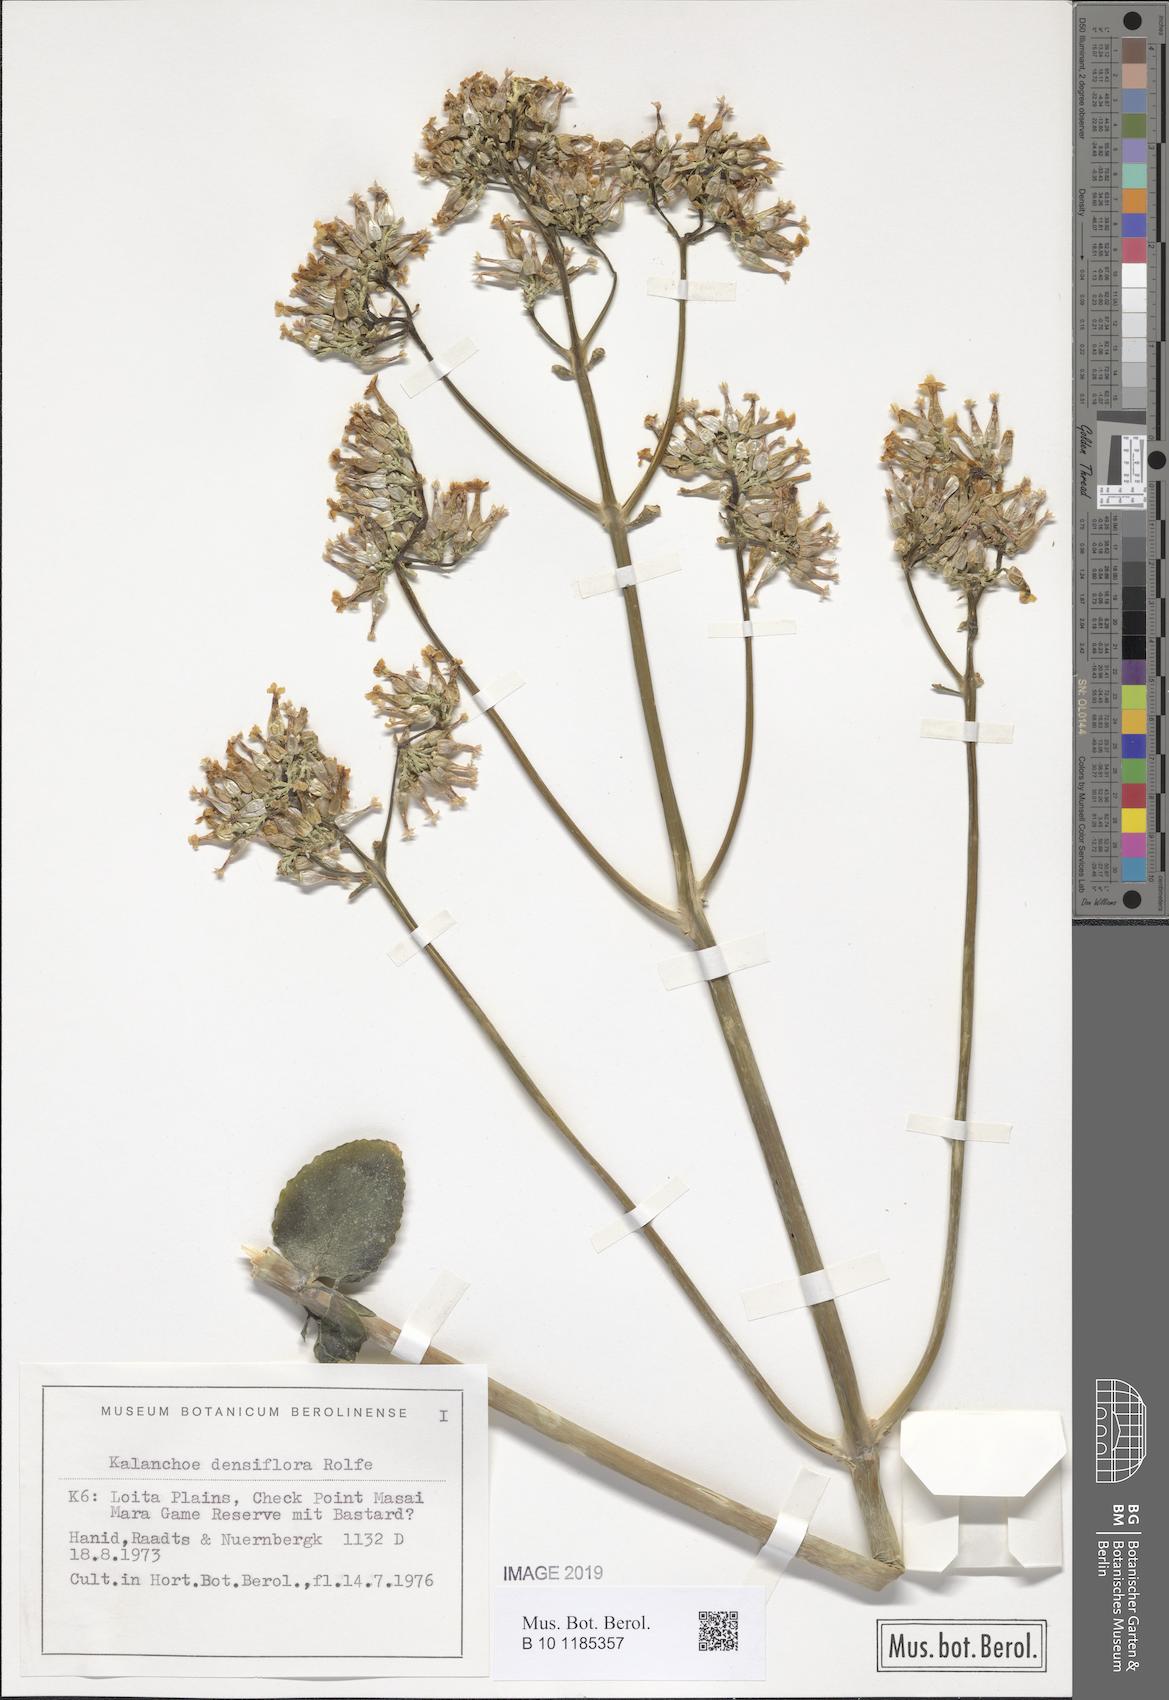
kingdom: Plantae
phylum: Tracheophyta
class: Magnoliopsida
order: Saxifragales
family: Crassulaceae
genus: Kalanchoe
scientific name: Kalanchoe densiflora
